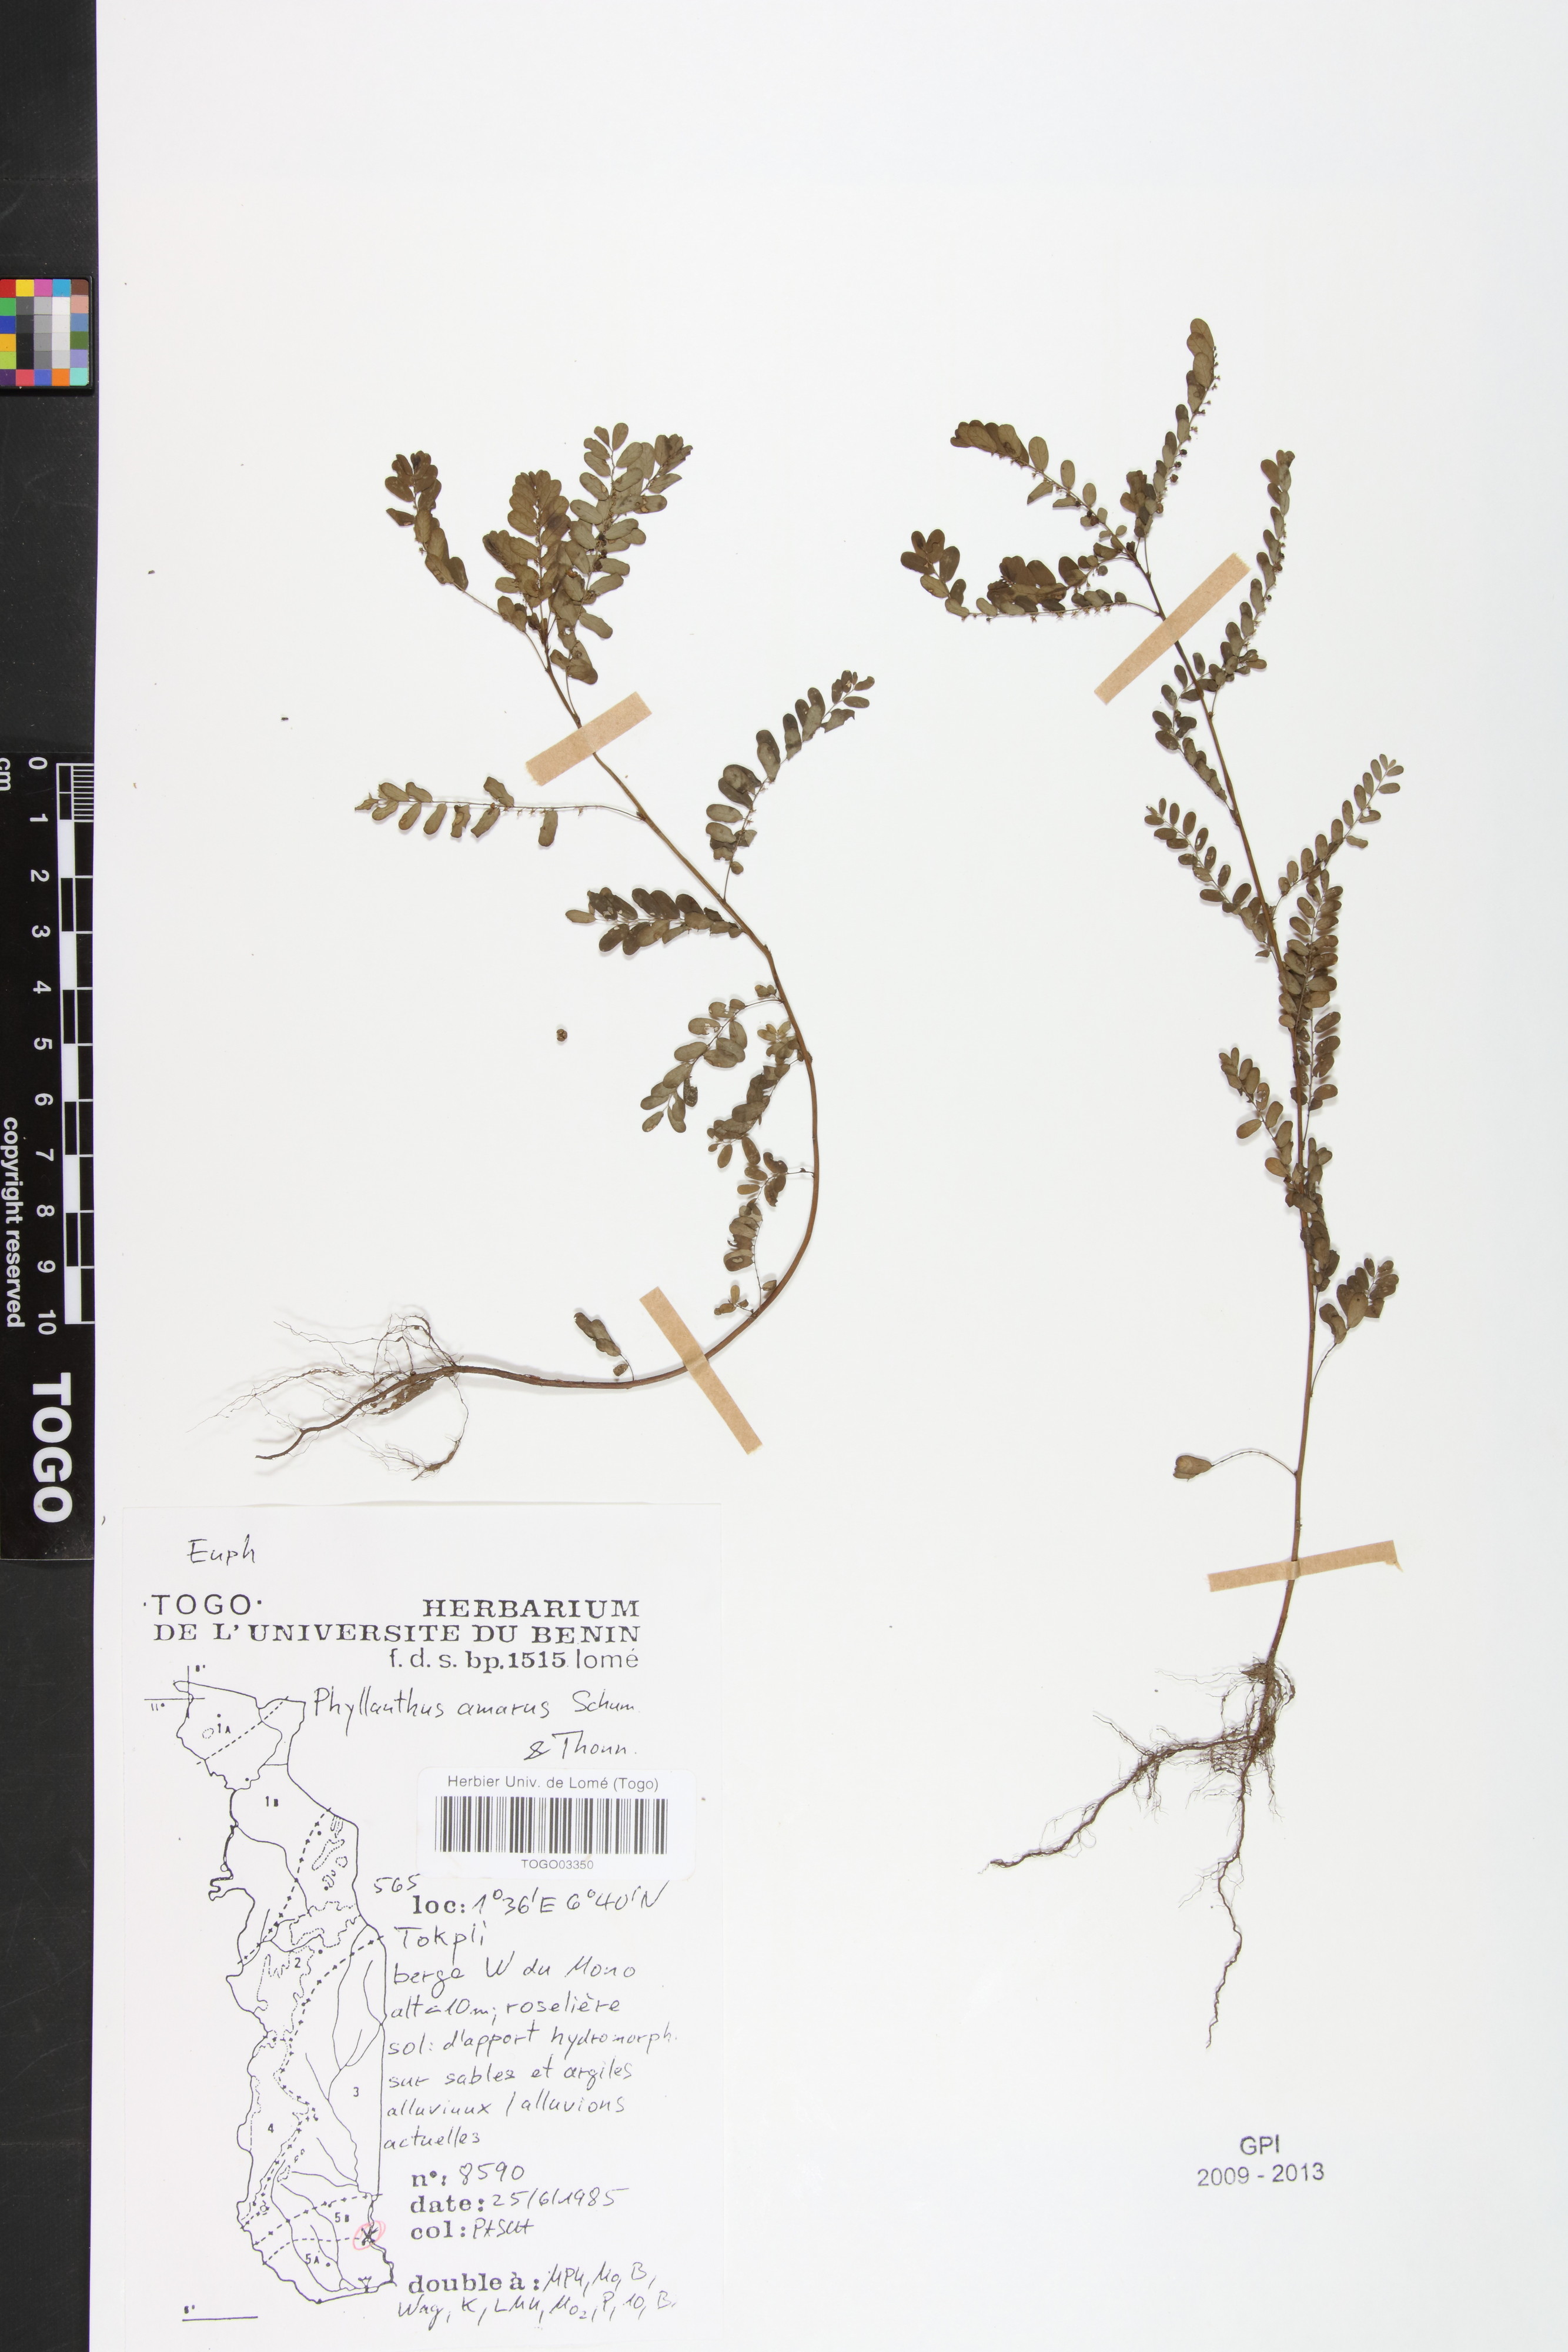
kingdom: Plantae
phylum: Tracheophyta
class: Magnoliopsida
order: Malpighiales
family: Phyllanthaceae
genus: Phyllanthus
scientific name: Phyllanthus amarus
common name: Carry me seed
